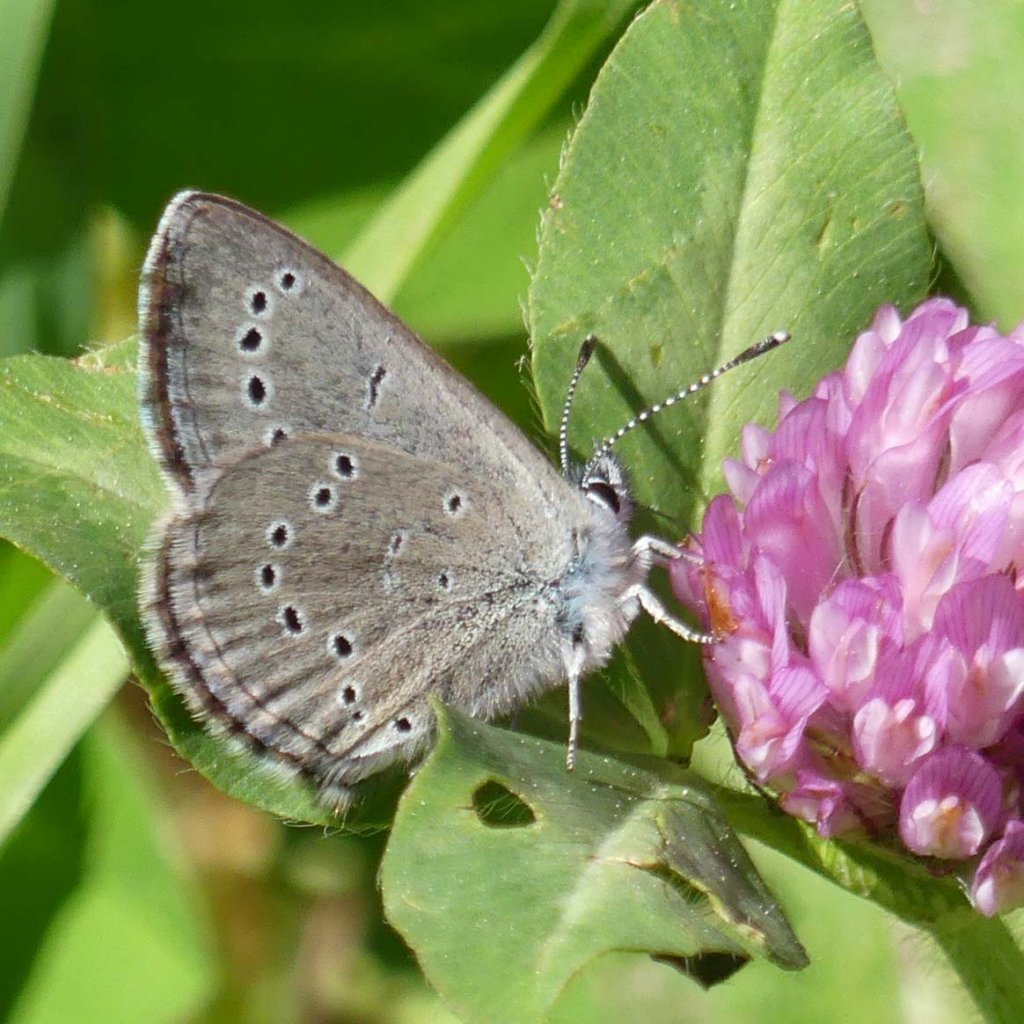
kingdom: Animalia
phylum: Arthropoda
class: Insecta
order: Lepidoptera
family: Lycaenidae
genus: Glaucopsyche
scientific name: Glaucopsyche lygdamus
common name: Silvery Blue
